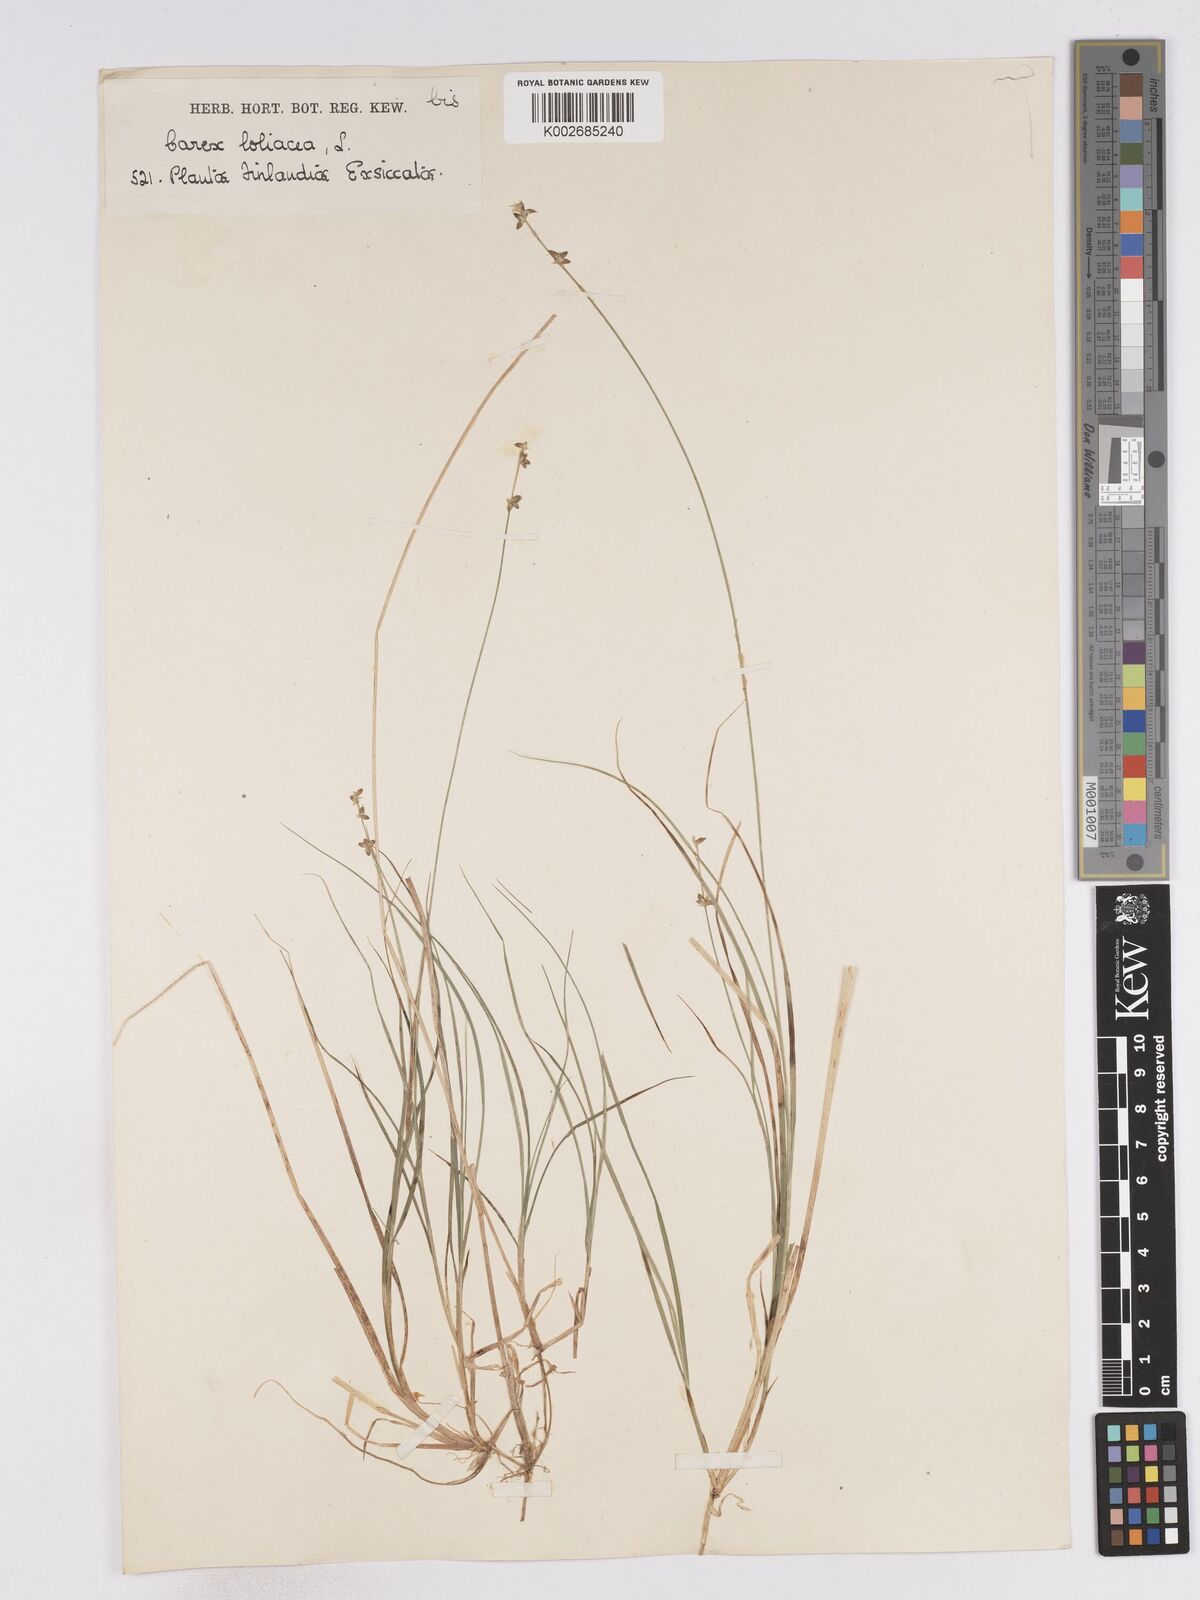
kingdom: Plantae
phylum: Tracheophyta
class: Liliopsida
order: Poales
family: Cyperaceae
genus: Carex
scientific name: Carex loliacea
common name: Ryegrass sedge
